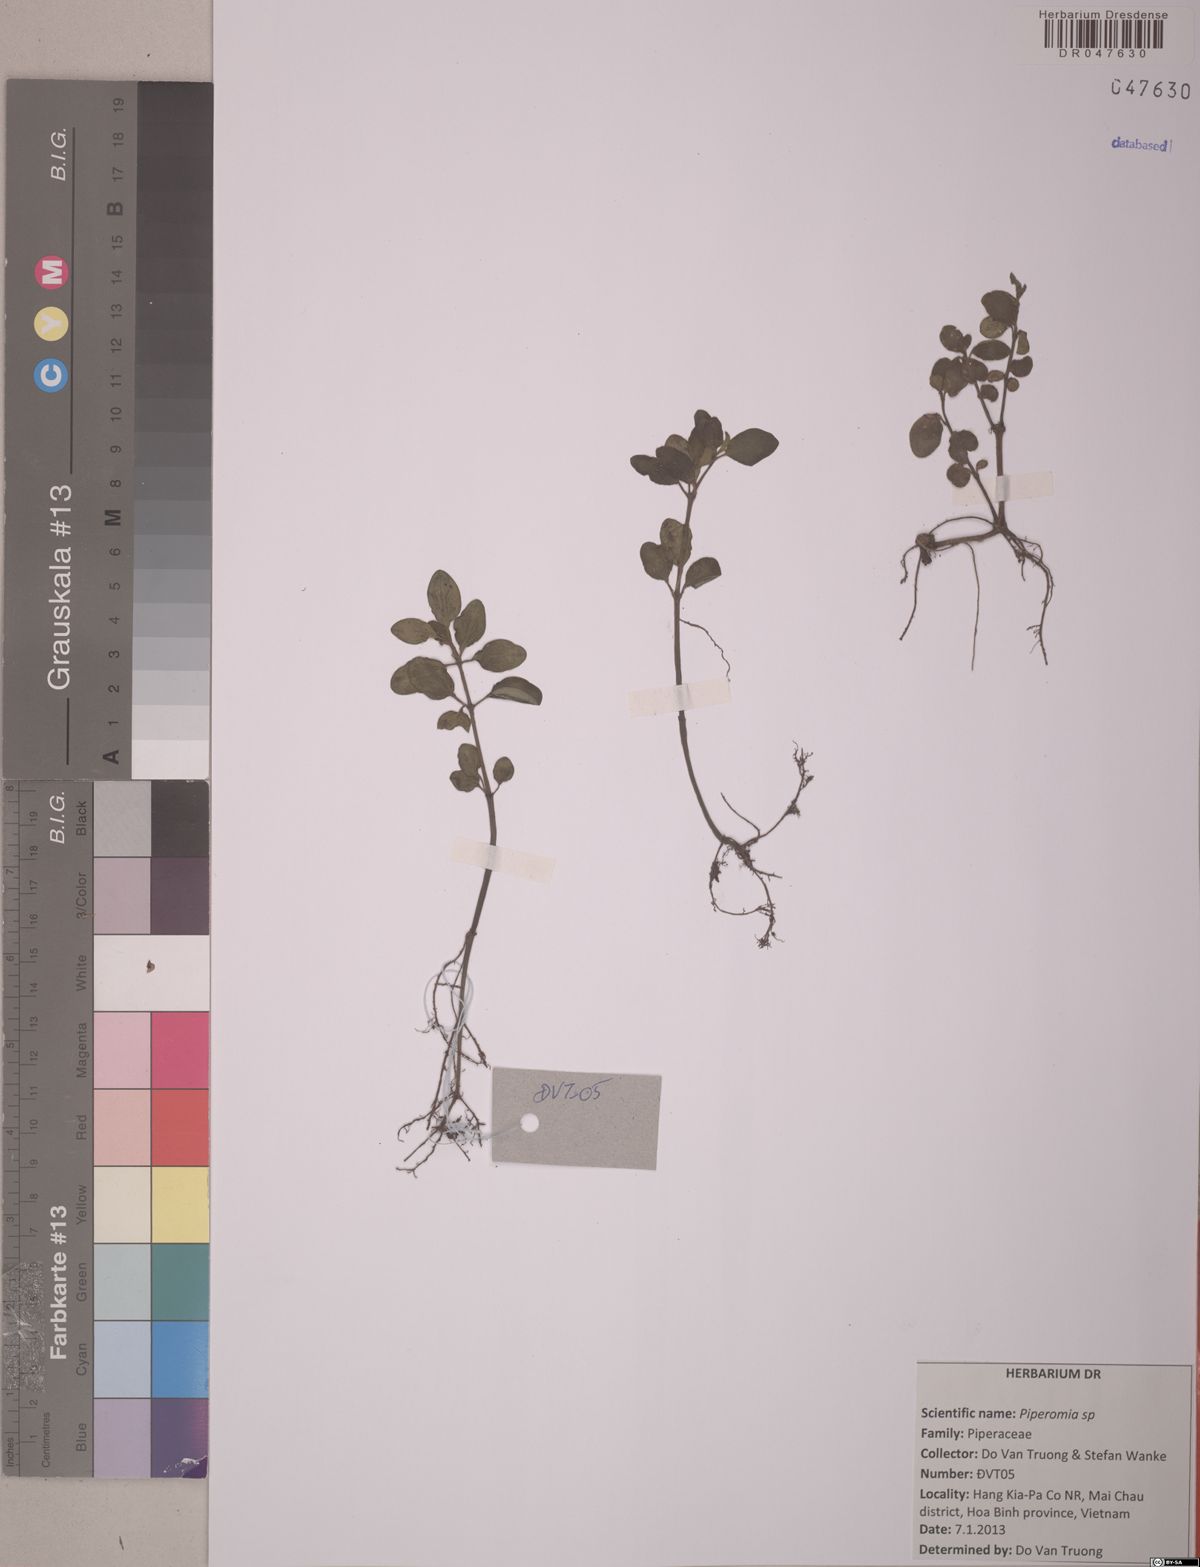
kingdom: Plantae
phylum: Tracheophyta
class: Magnoliopsida
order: Piperales
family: Piperaceae
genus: Peperomia
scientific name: Peperomia
